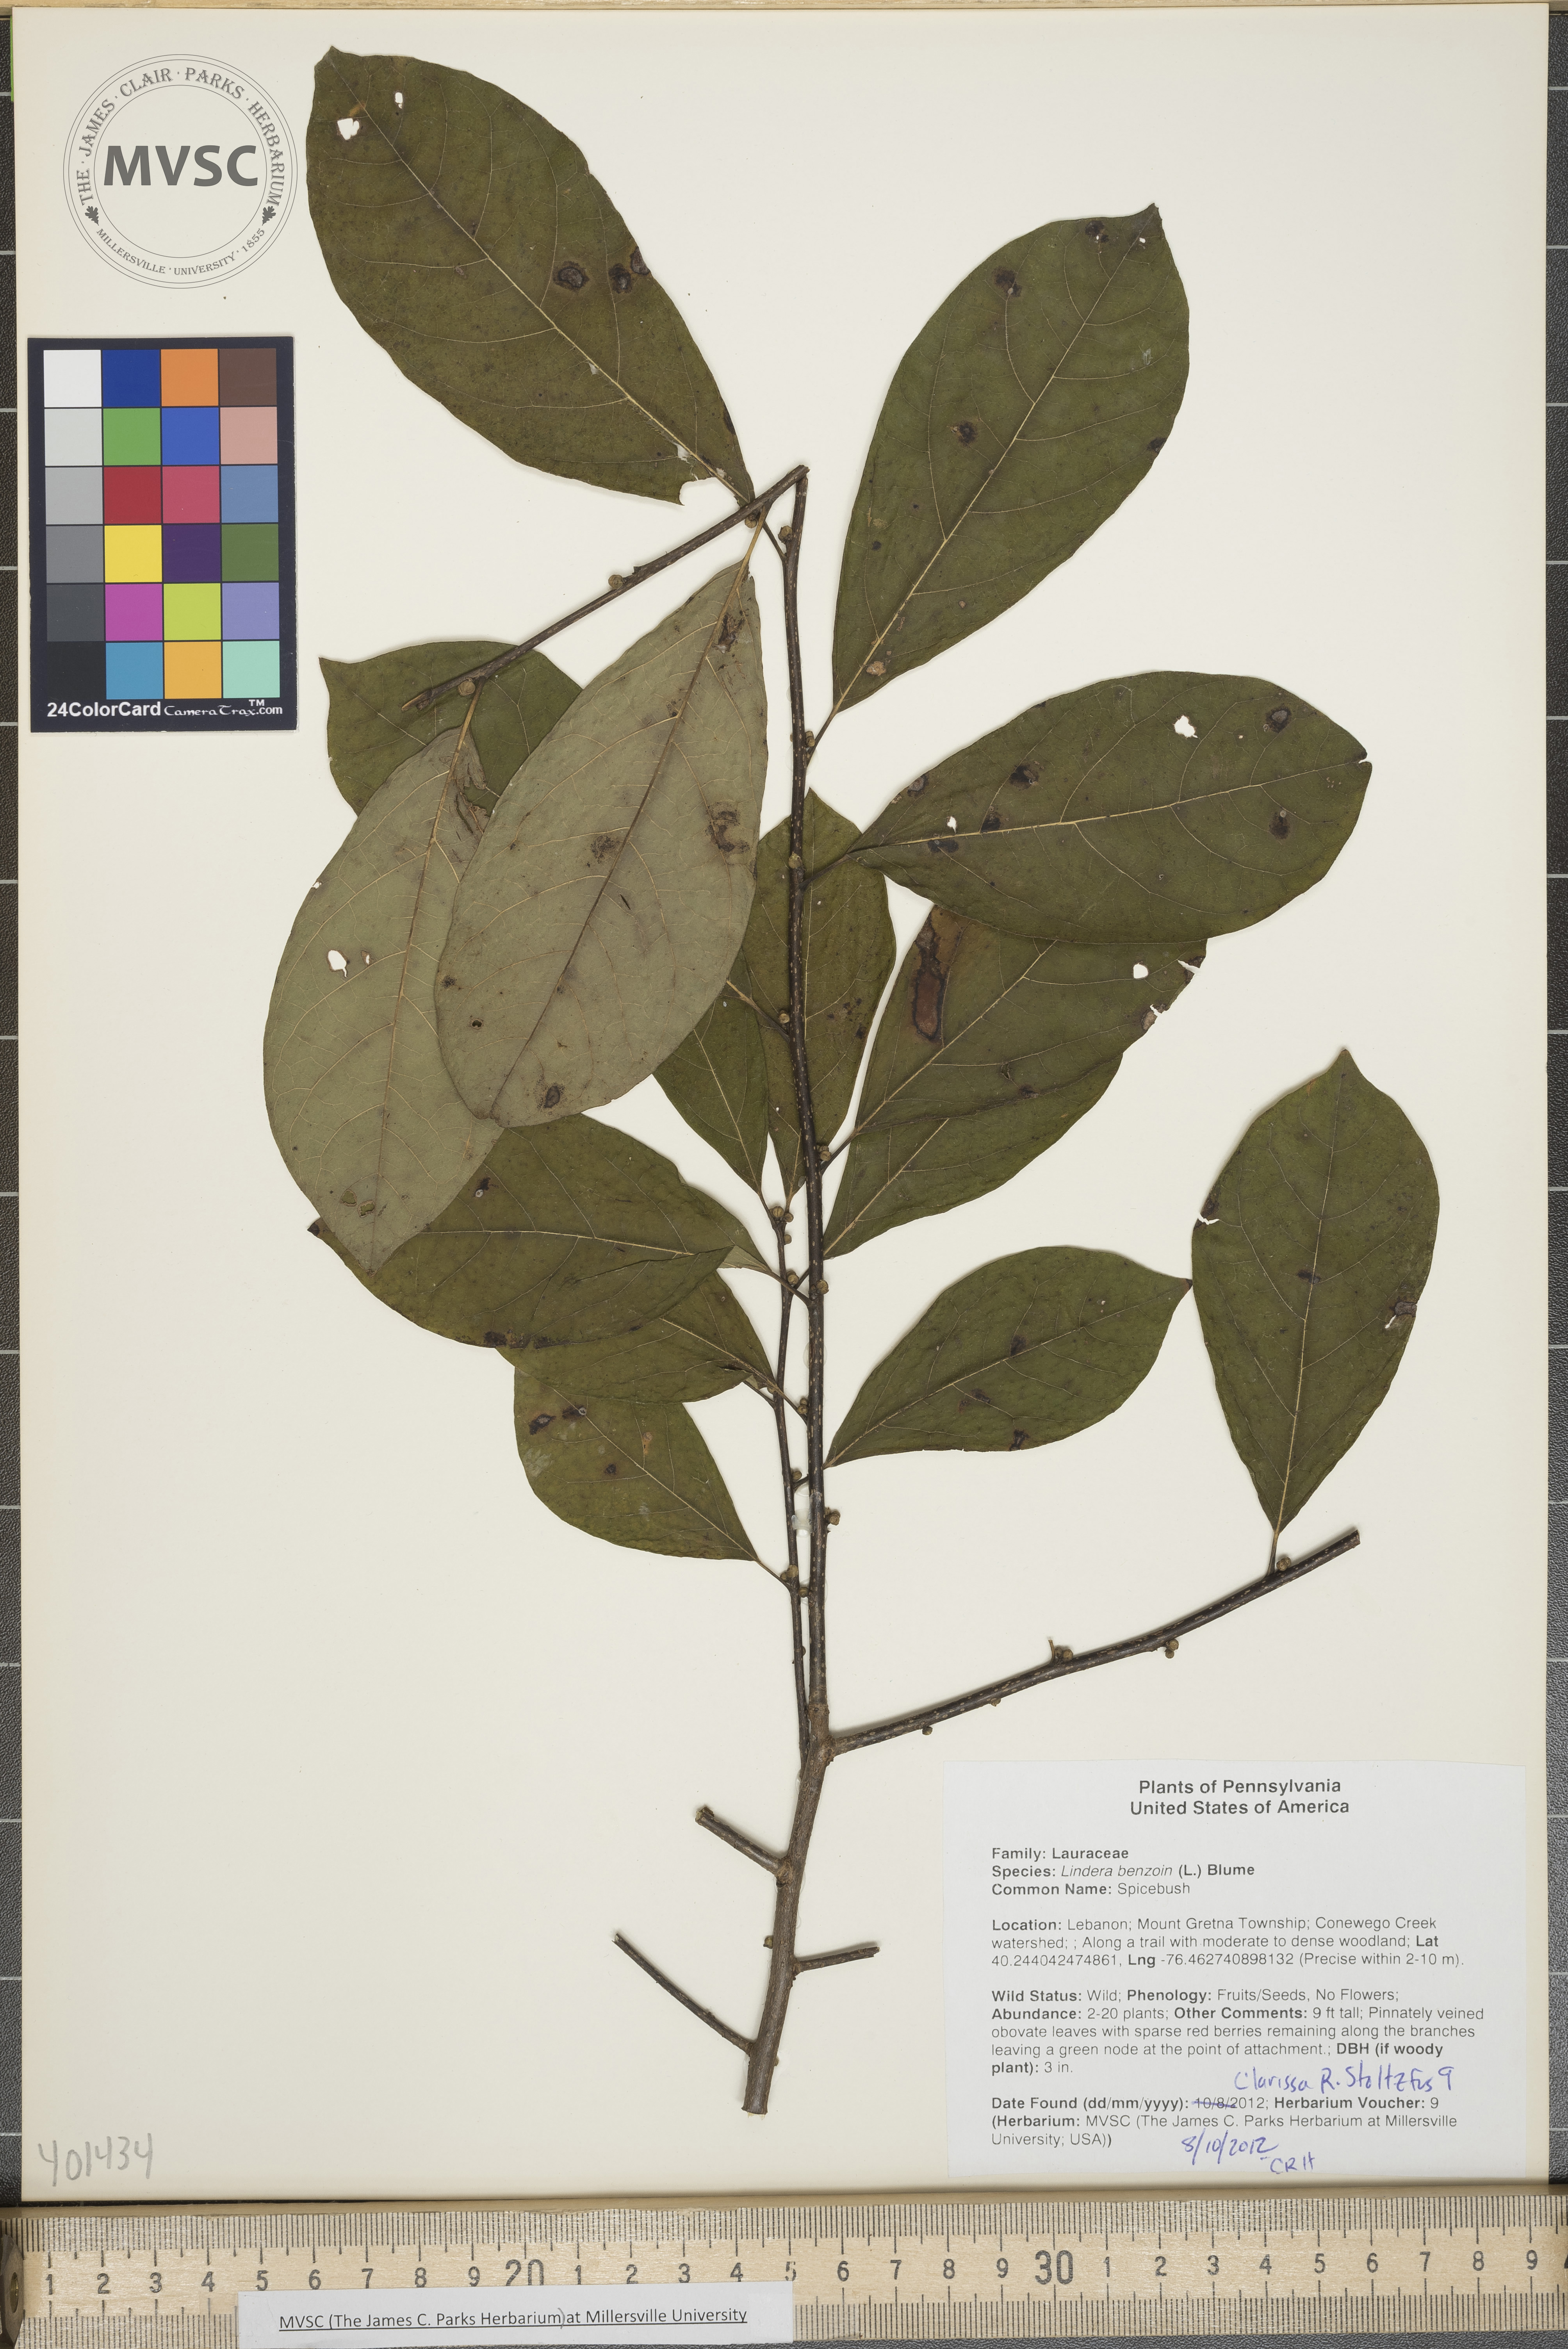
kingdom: Plantae
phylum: Tracheophyta
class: Magnoliopsida
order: Laurales
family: Lauraceae
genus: Lindera
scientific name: Lindera benzoin
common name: Spicebush
